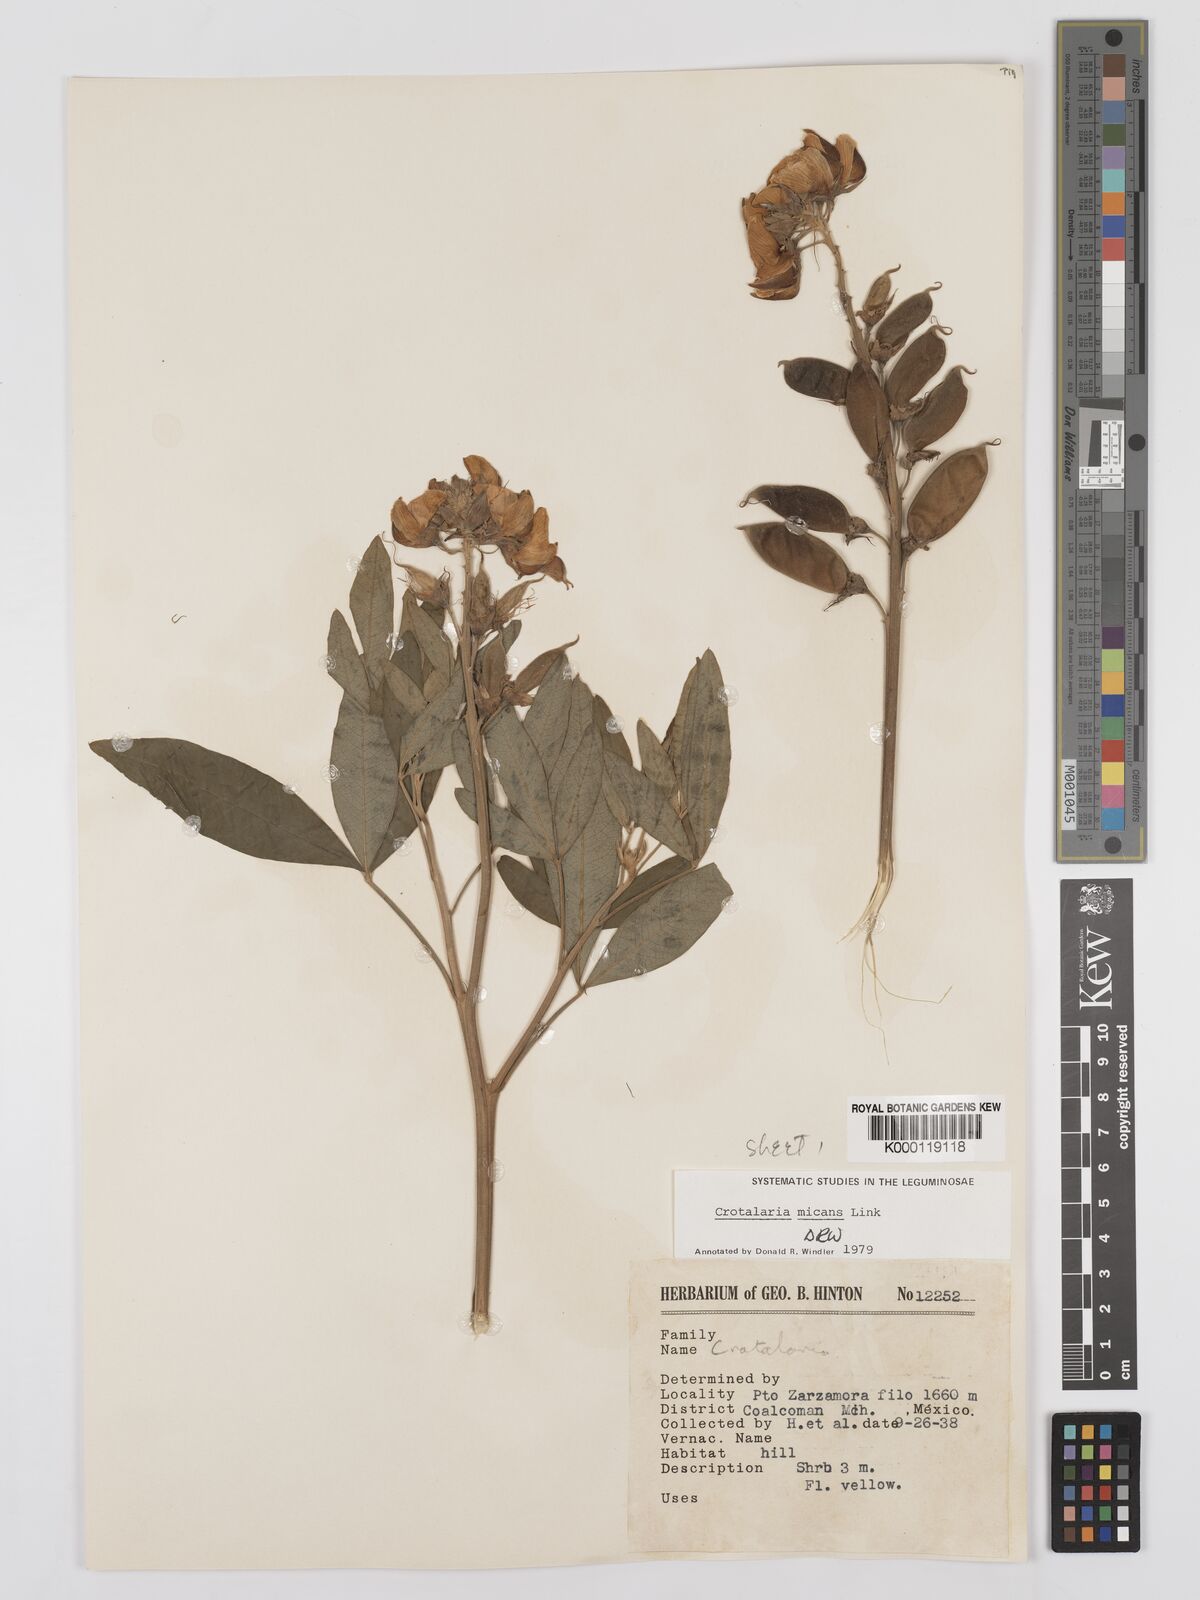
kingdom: Plantae
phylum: Tracheophyta
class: Magnoliopsida
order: Fabales
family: Fabaceae
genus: Crotalaria
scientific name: Crotalaria micans
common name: Caracas rattlebox
